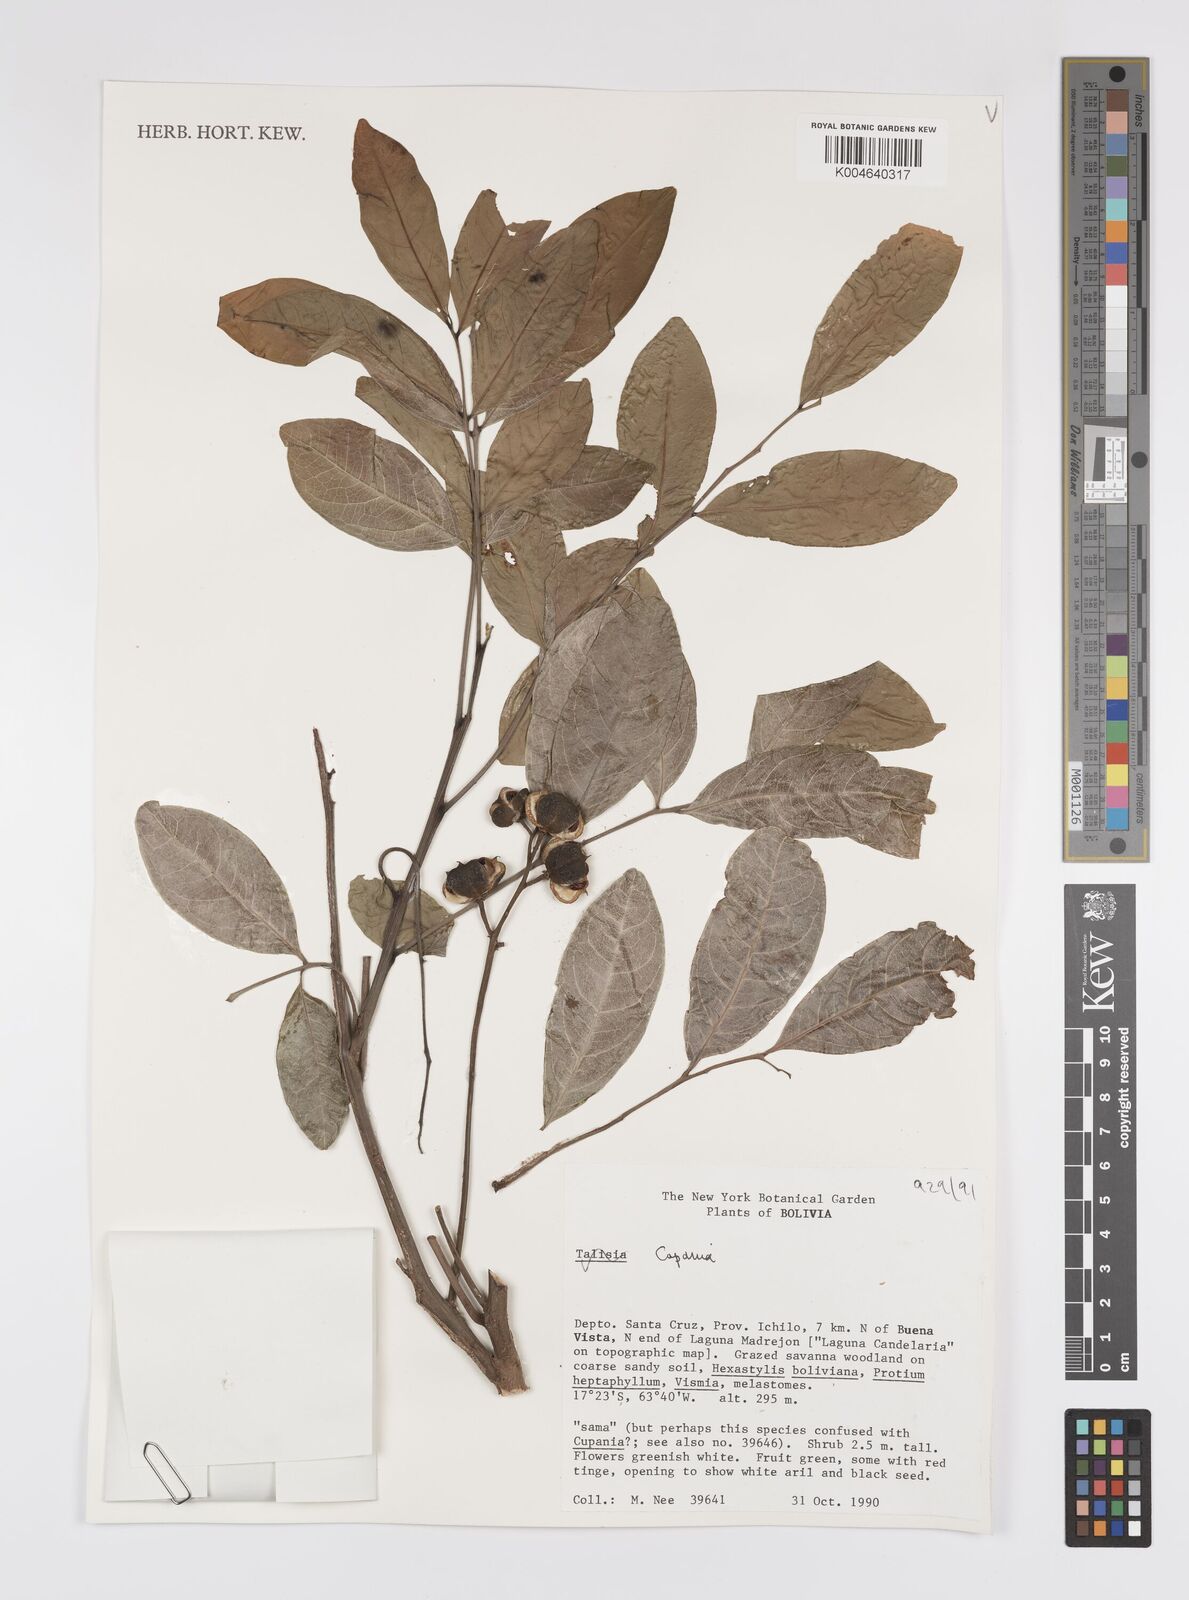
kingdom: Plantae
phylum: Tracheophyta
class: Magnoliopsida
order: Sapindales
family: Sapindaceae
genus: Cupania
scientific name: Cupania
